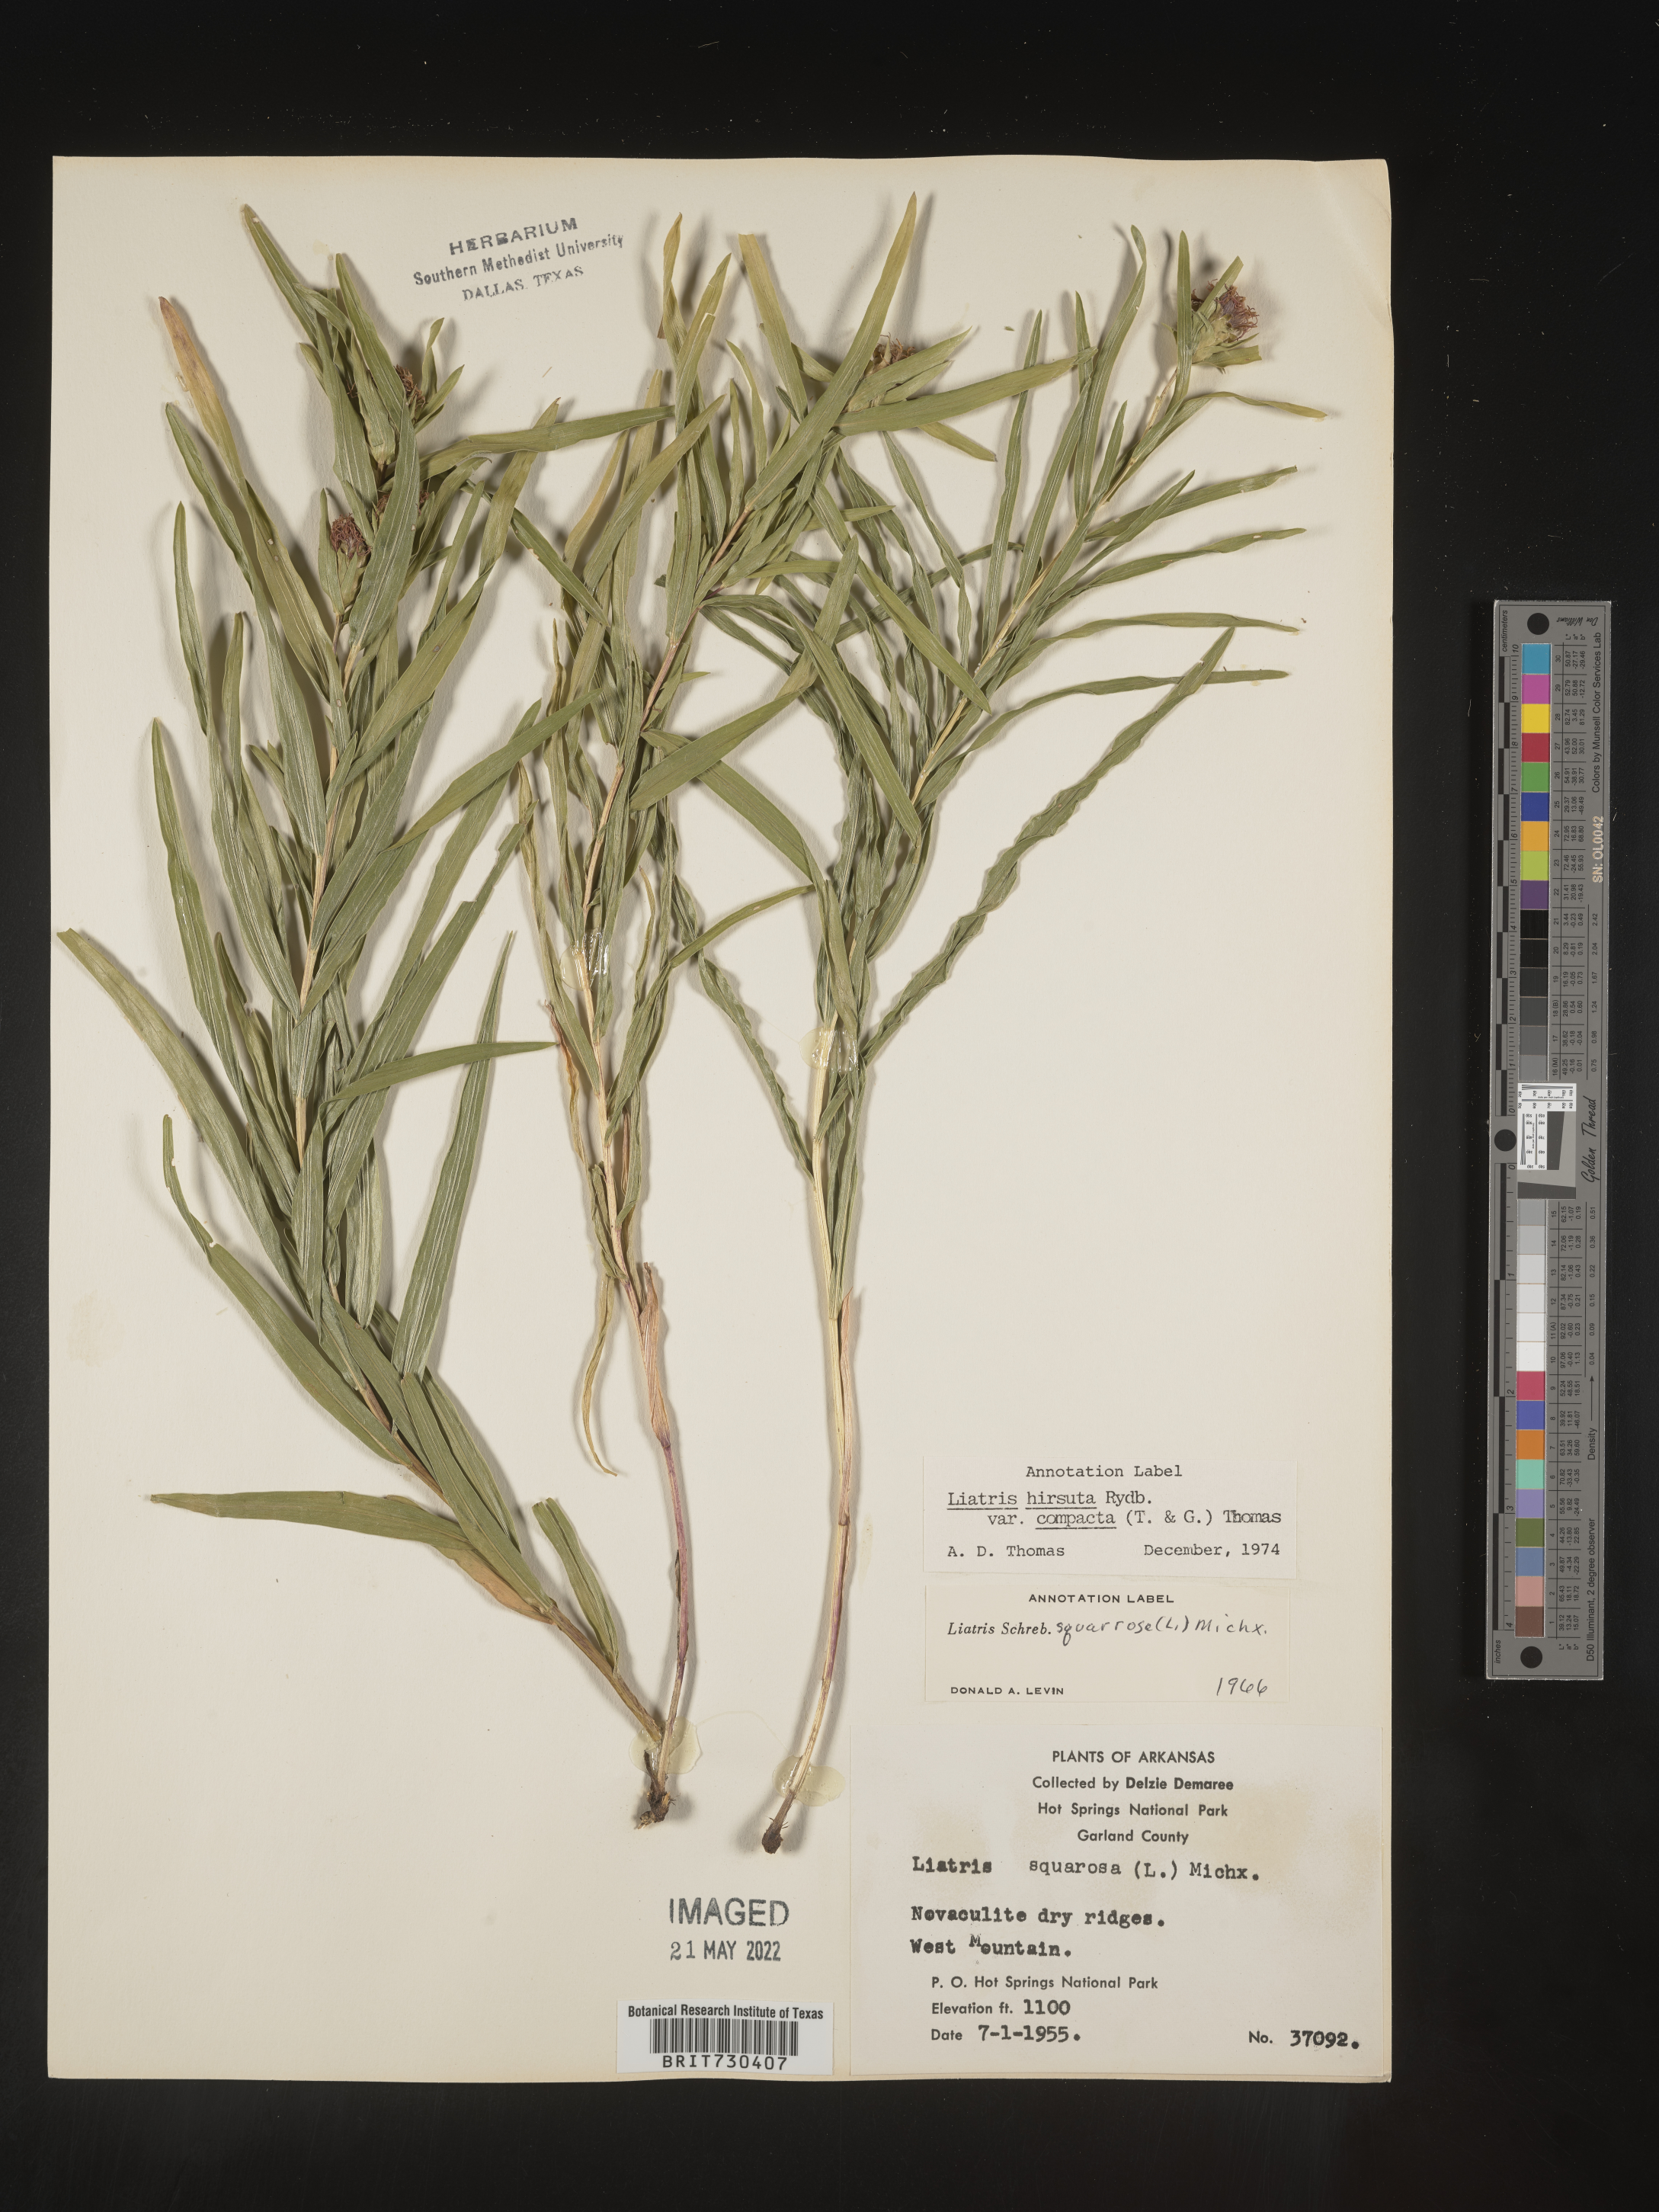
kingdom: Plantae
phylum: Tracheophyta
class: Magnoliopsida
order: Asterales
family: Asteraceae
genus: Liatris
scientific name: Liatris compacta
